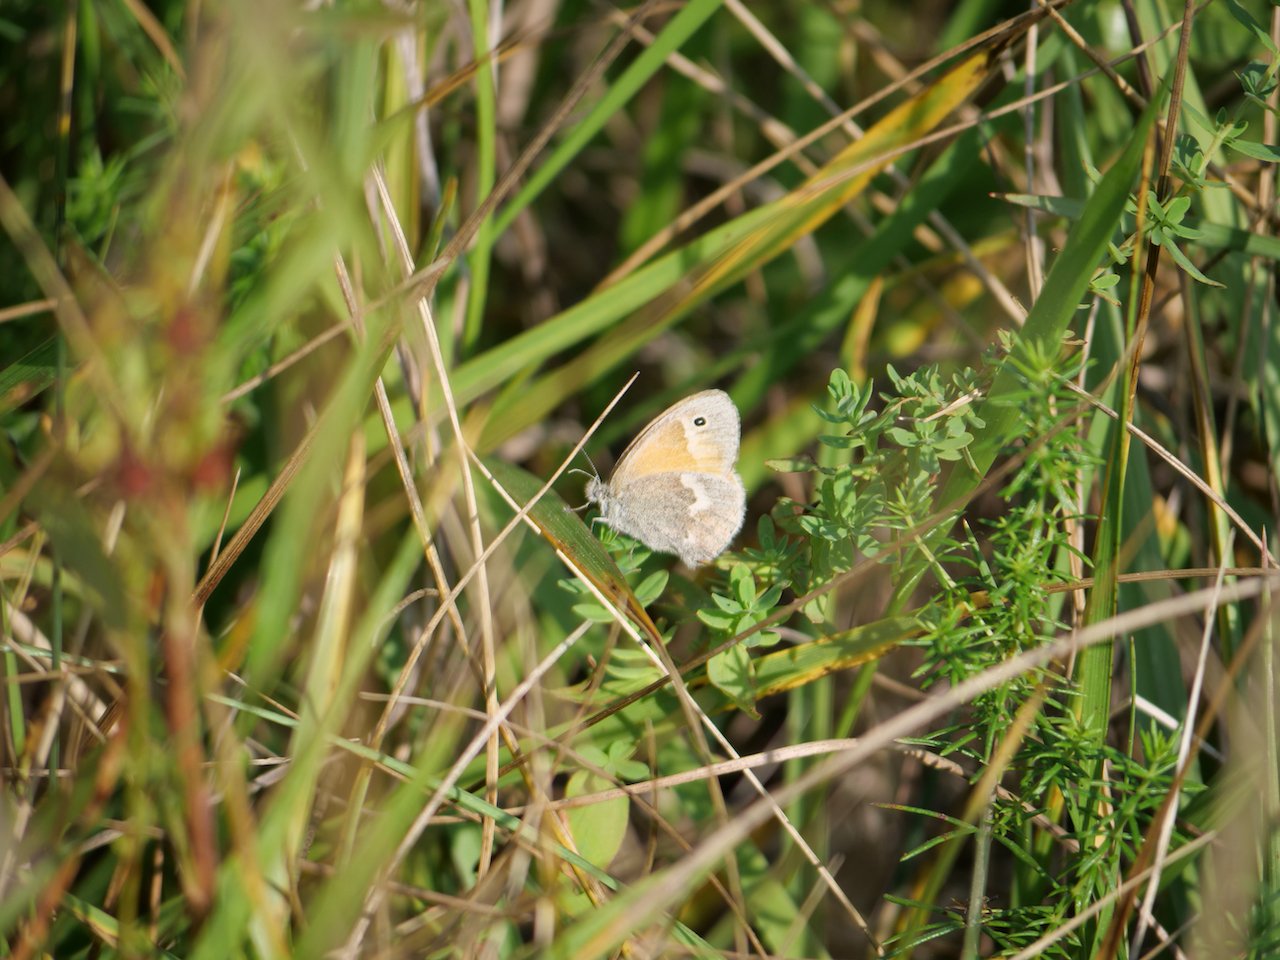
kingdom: Animalia
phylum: Arthropoda
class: Insecta
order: Lepidoptera
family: Nymphalidae
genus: Coenonympha
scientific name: Coenonympha tullia
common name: Large Heath
